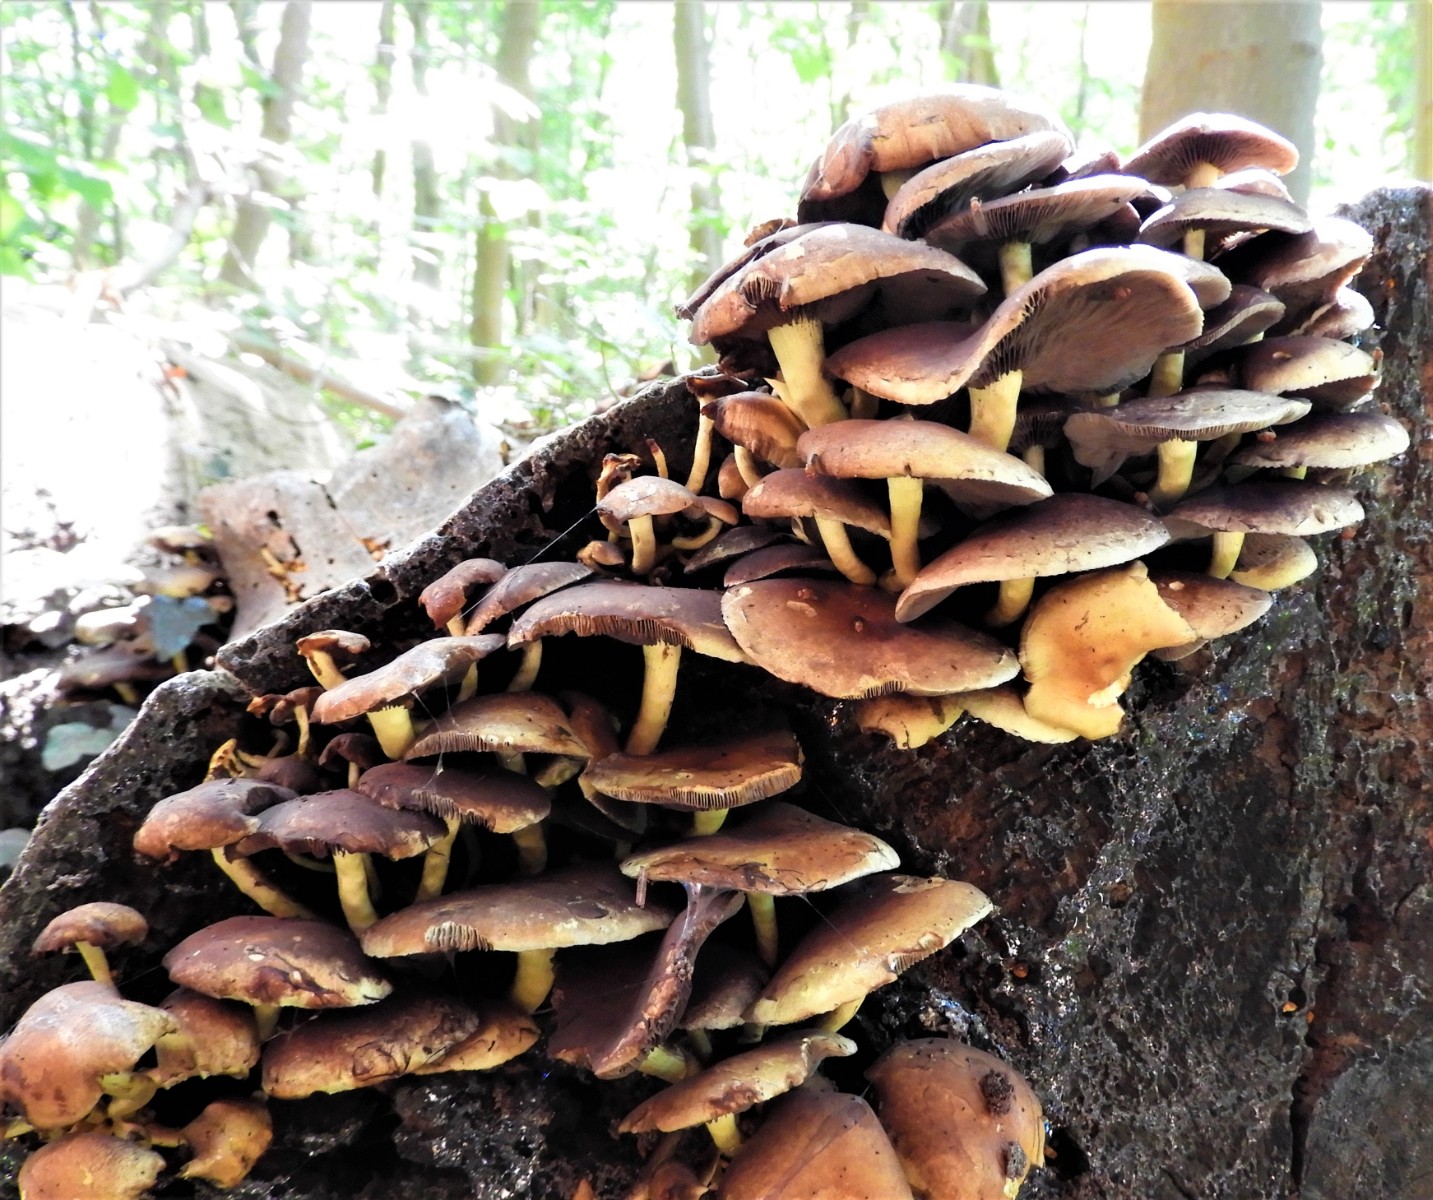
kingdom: Fungi
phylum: Basidiomycota
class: Agaricomycetes
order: Agaricales
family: Strophariaceae
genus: Hypholoma
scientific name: Hypholoma fasciculare
